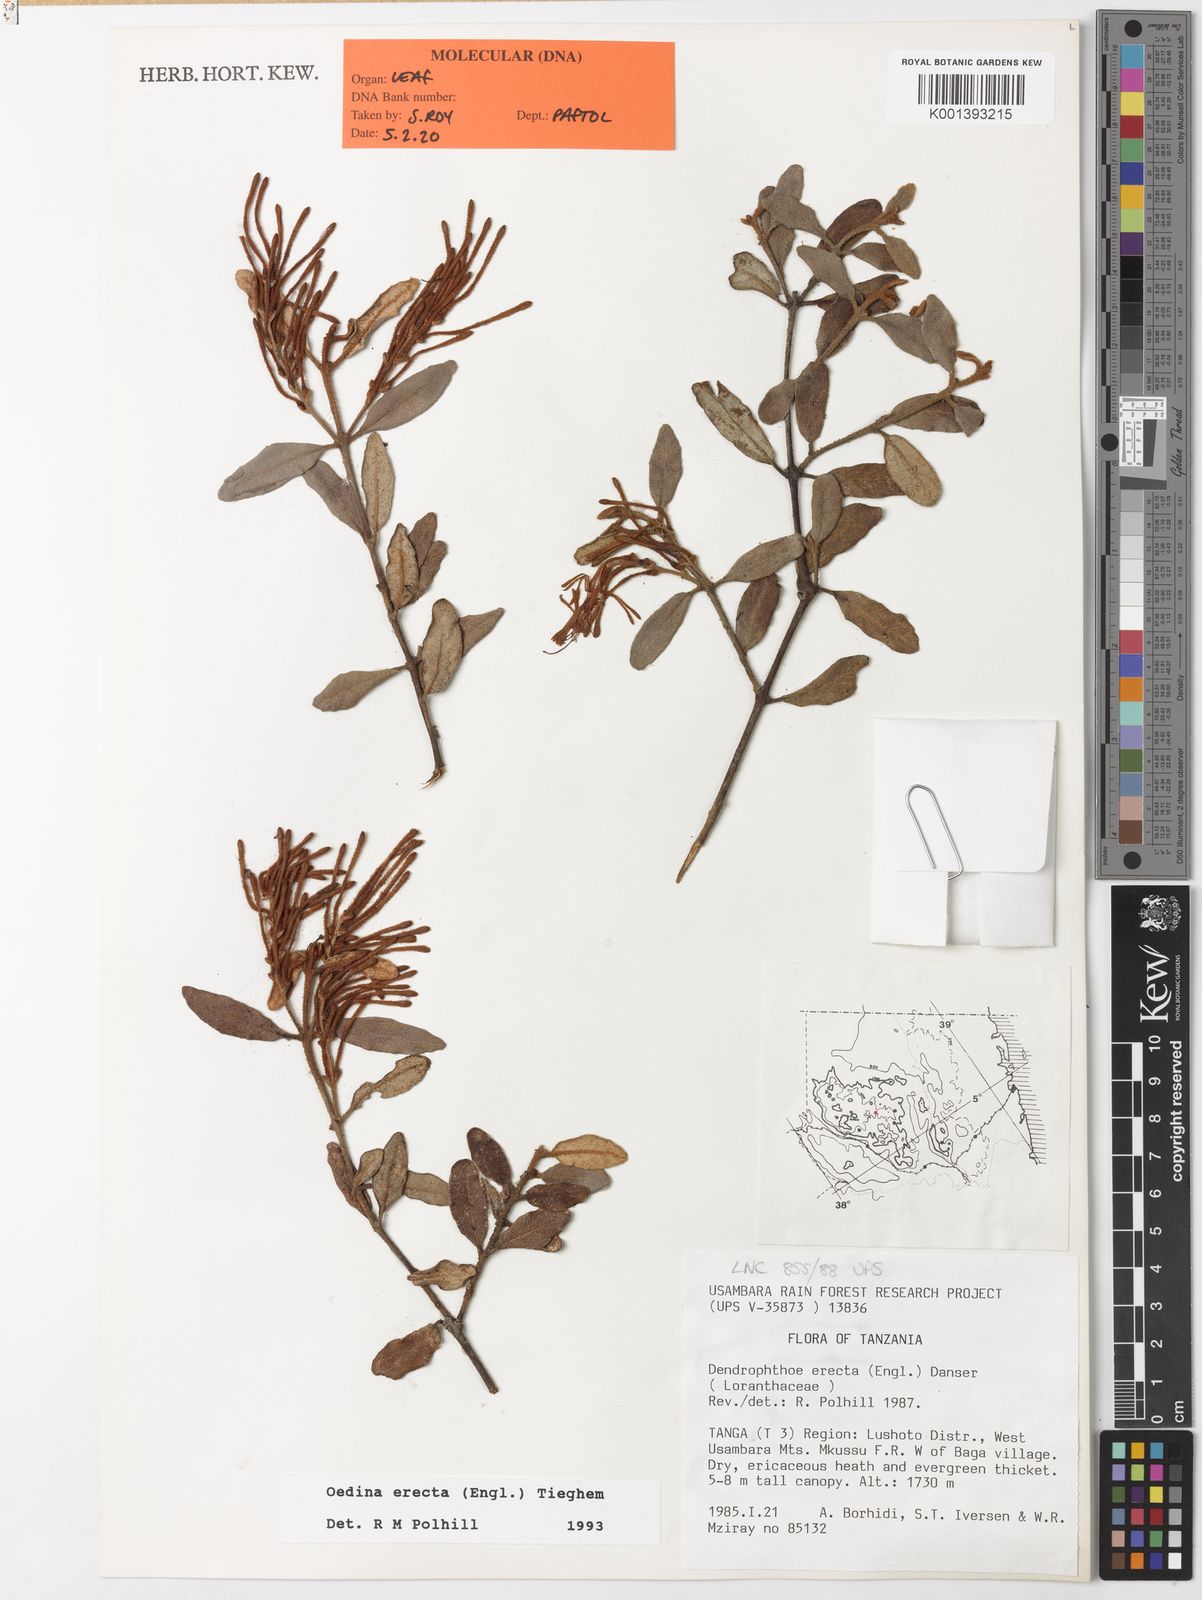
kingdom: Plantae
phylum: Tracheophyta
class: Magnoliopsida
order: Santalales
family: Loranthaceae
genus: Oedina
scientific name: Oedina erecta
